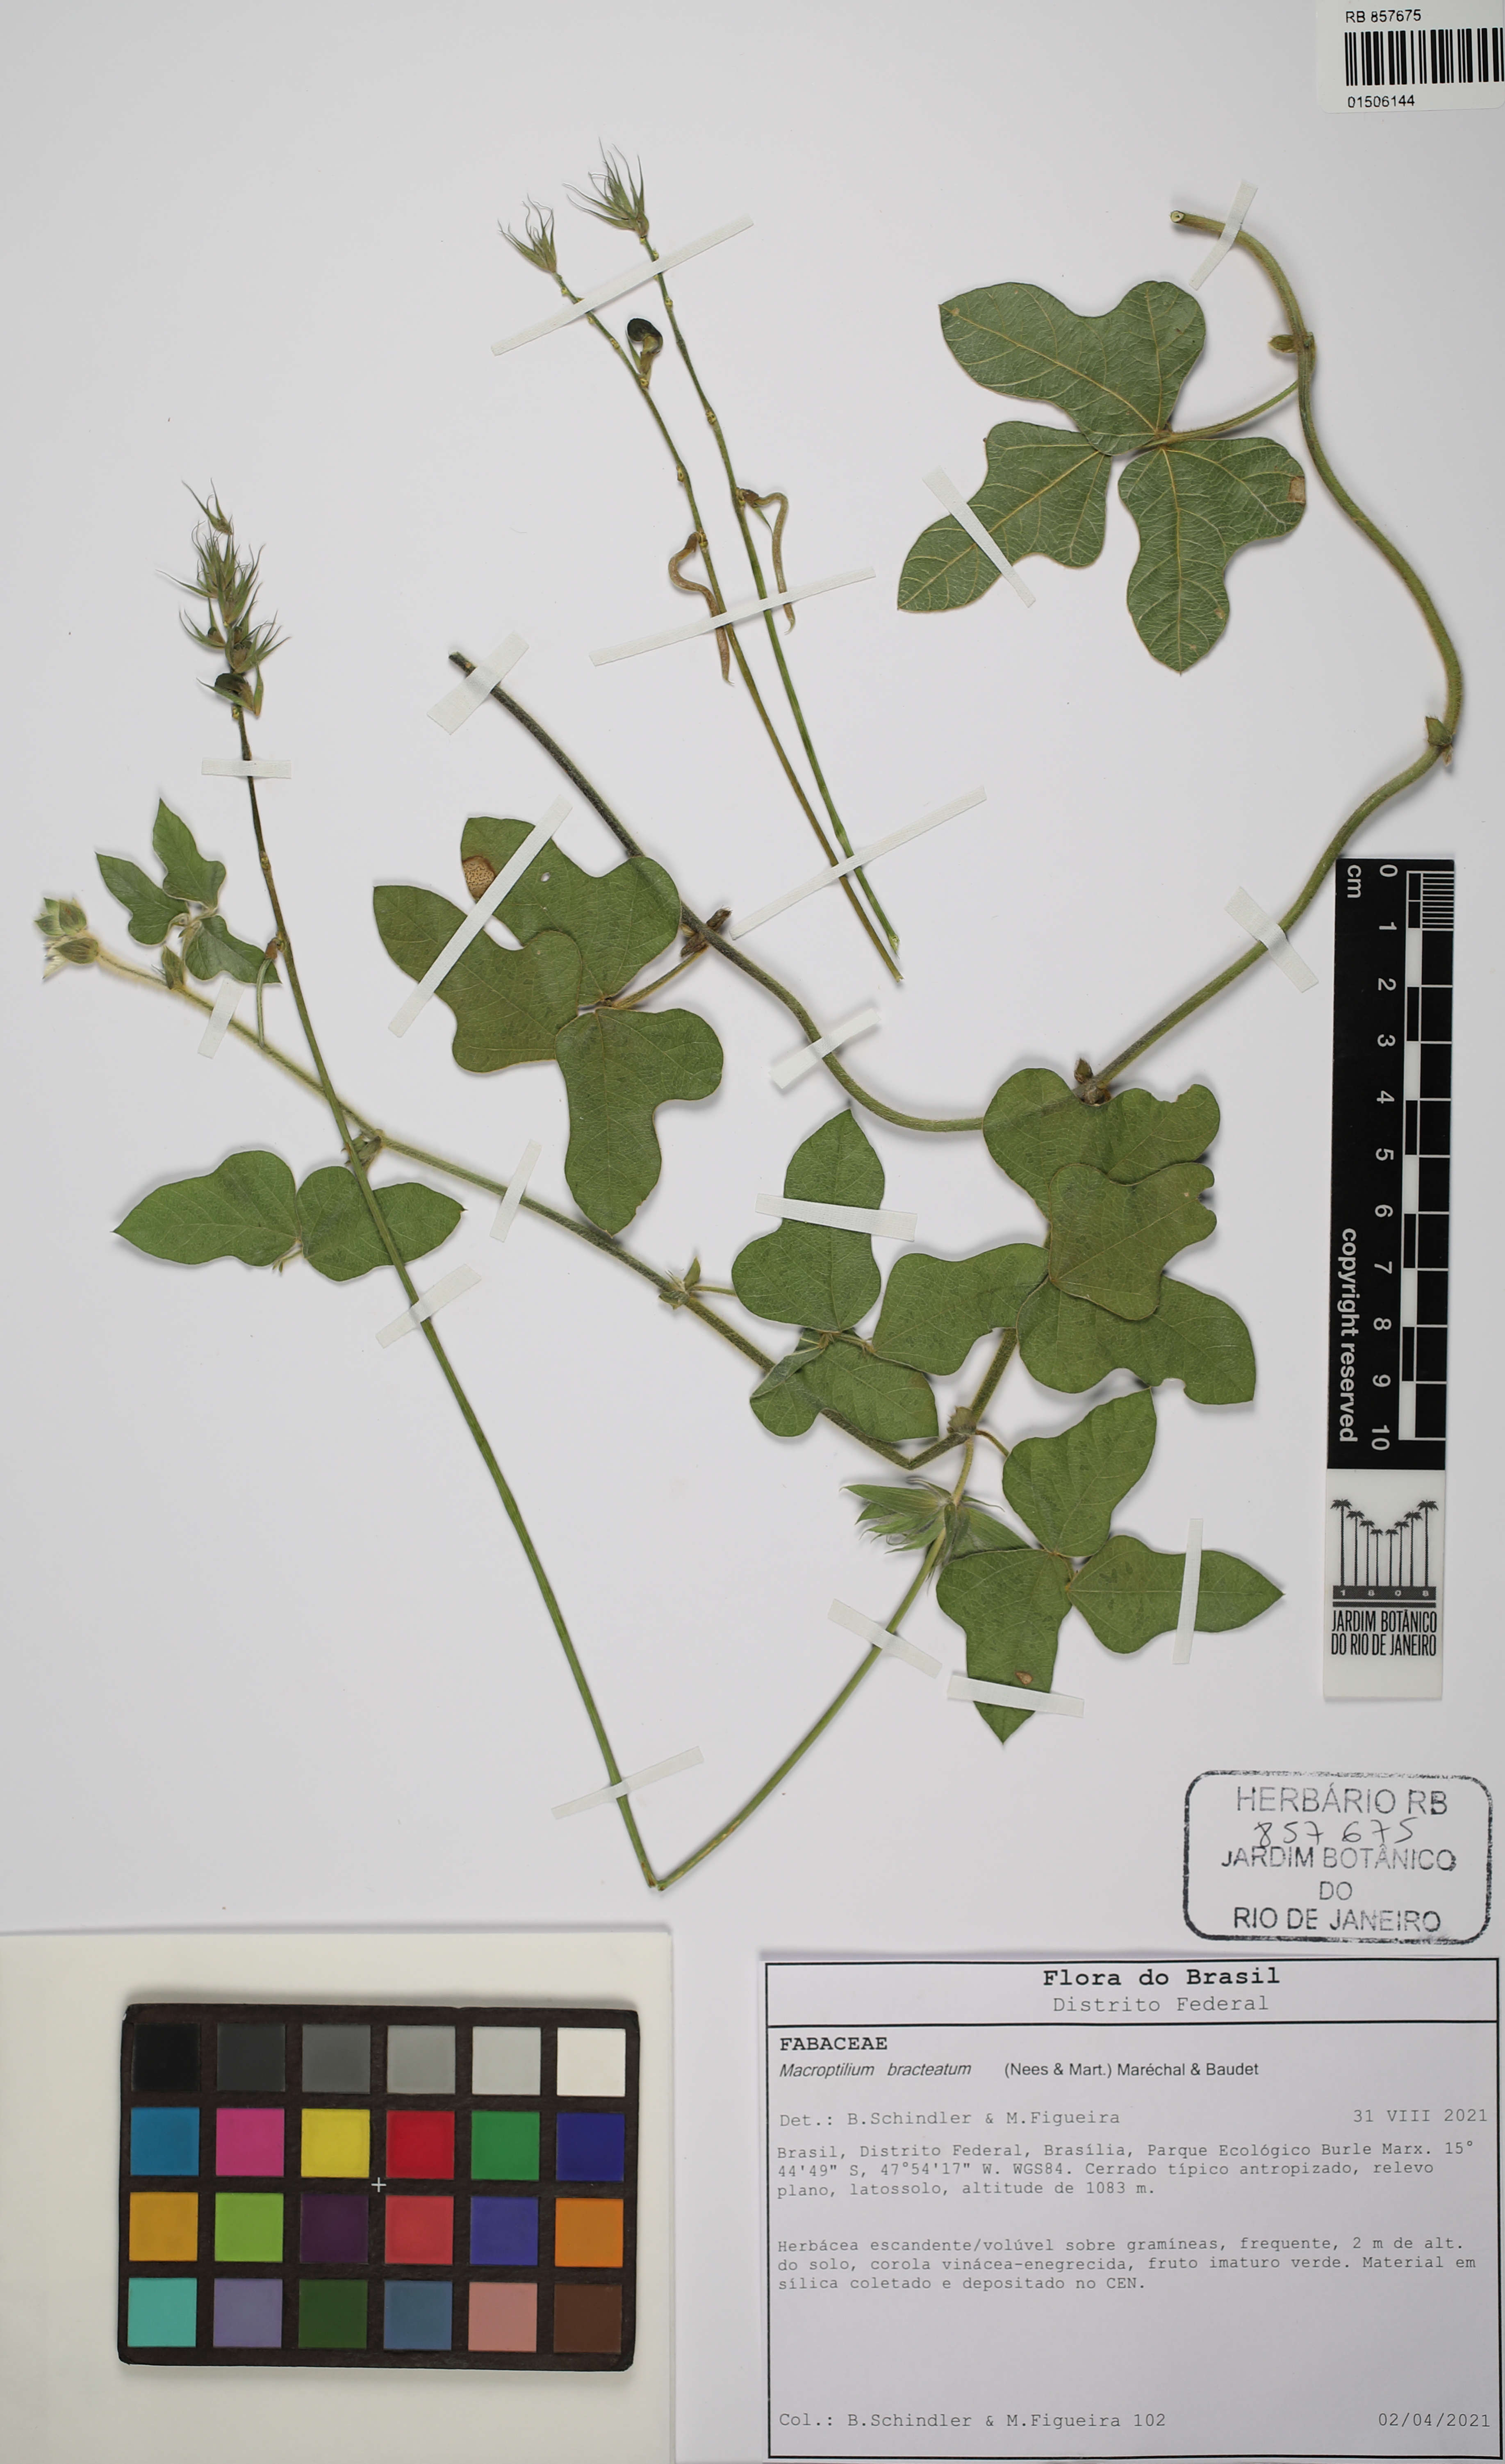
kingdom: Plantae
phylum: Tracheophyta
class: Magnoliopsida
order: Fabales
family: Fabaceae
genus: Macroptilium
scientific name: Macroptilium bracteatum
